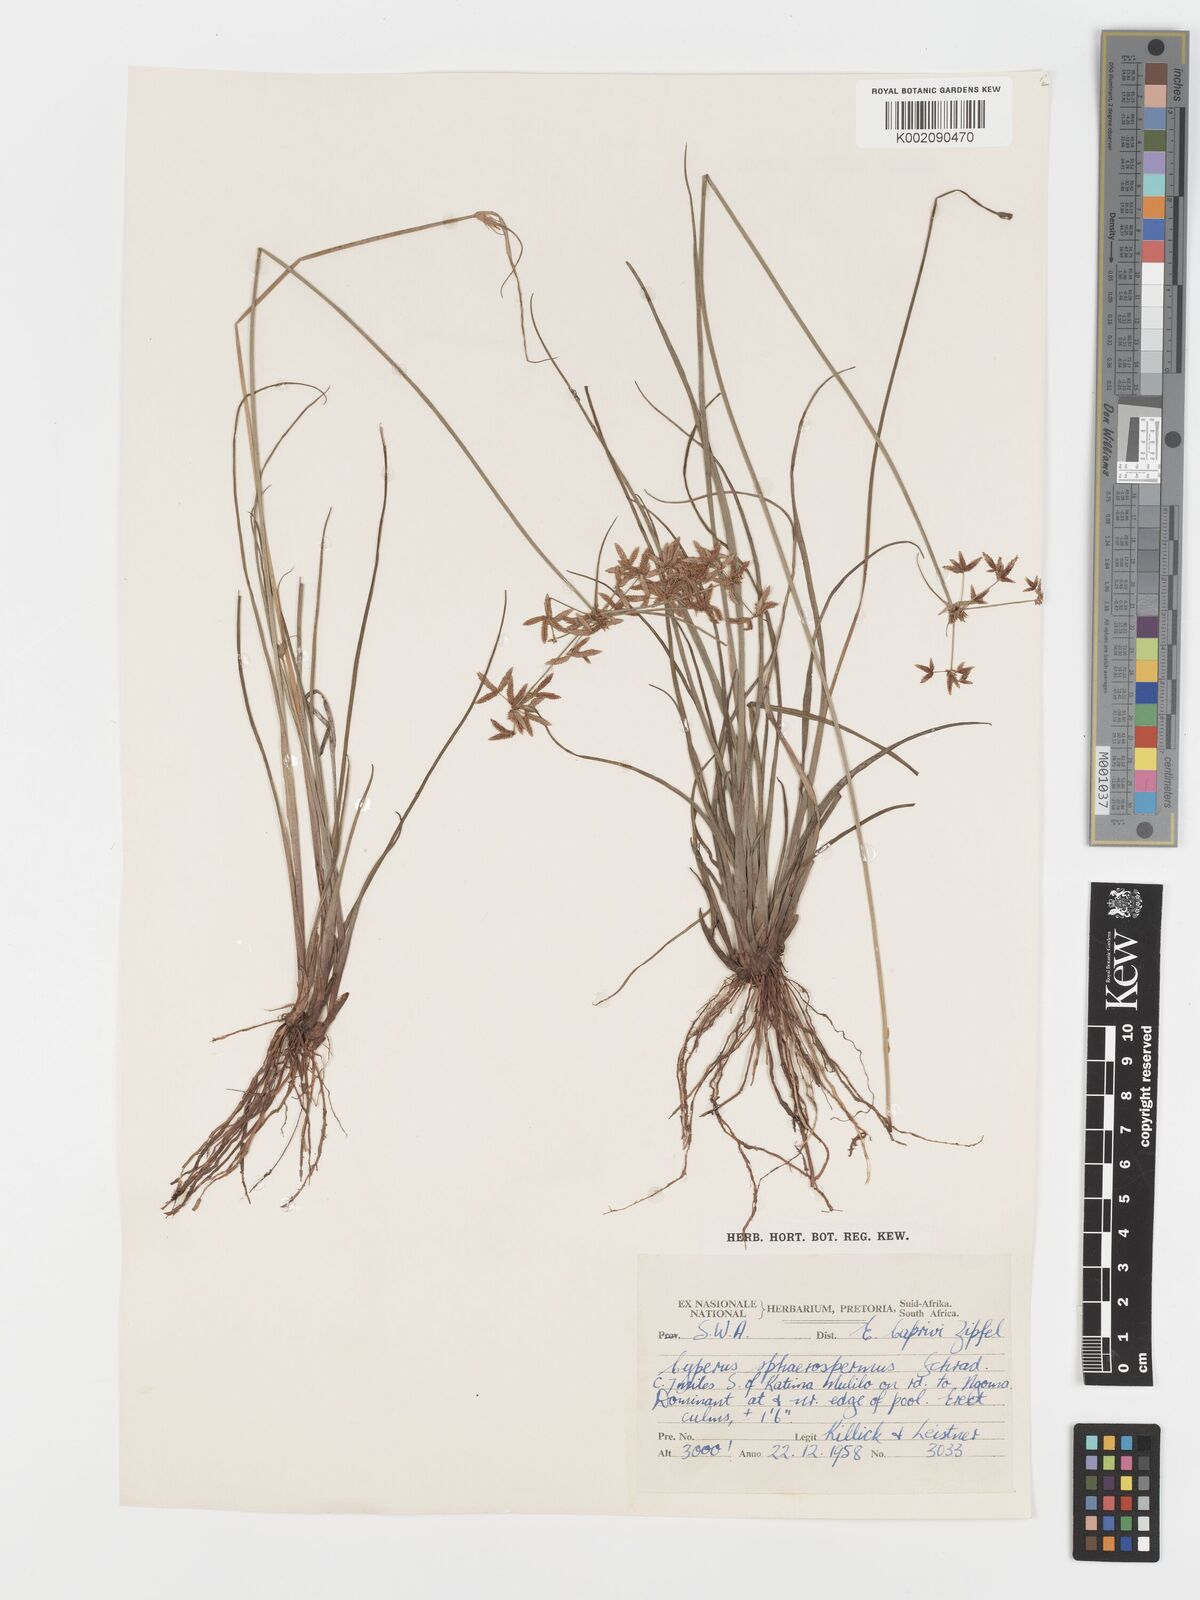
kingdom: Plantae
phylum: Tracheophyta
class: Liliopsida
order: Poales
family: Cyperaceae
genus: Cyperus
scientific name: Cyperus sphaerospermus
